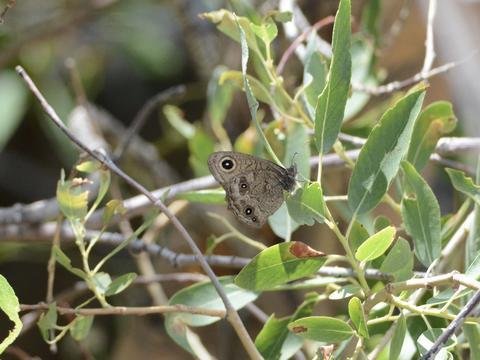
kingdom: Animalia
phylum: Arthropoda
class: Insecta
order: Lepidoptera
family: Nymphalidae
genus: Cercyonis
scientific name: Cercyonis pegala
